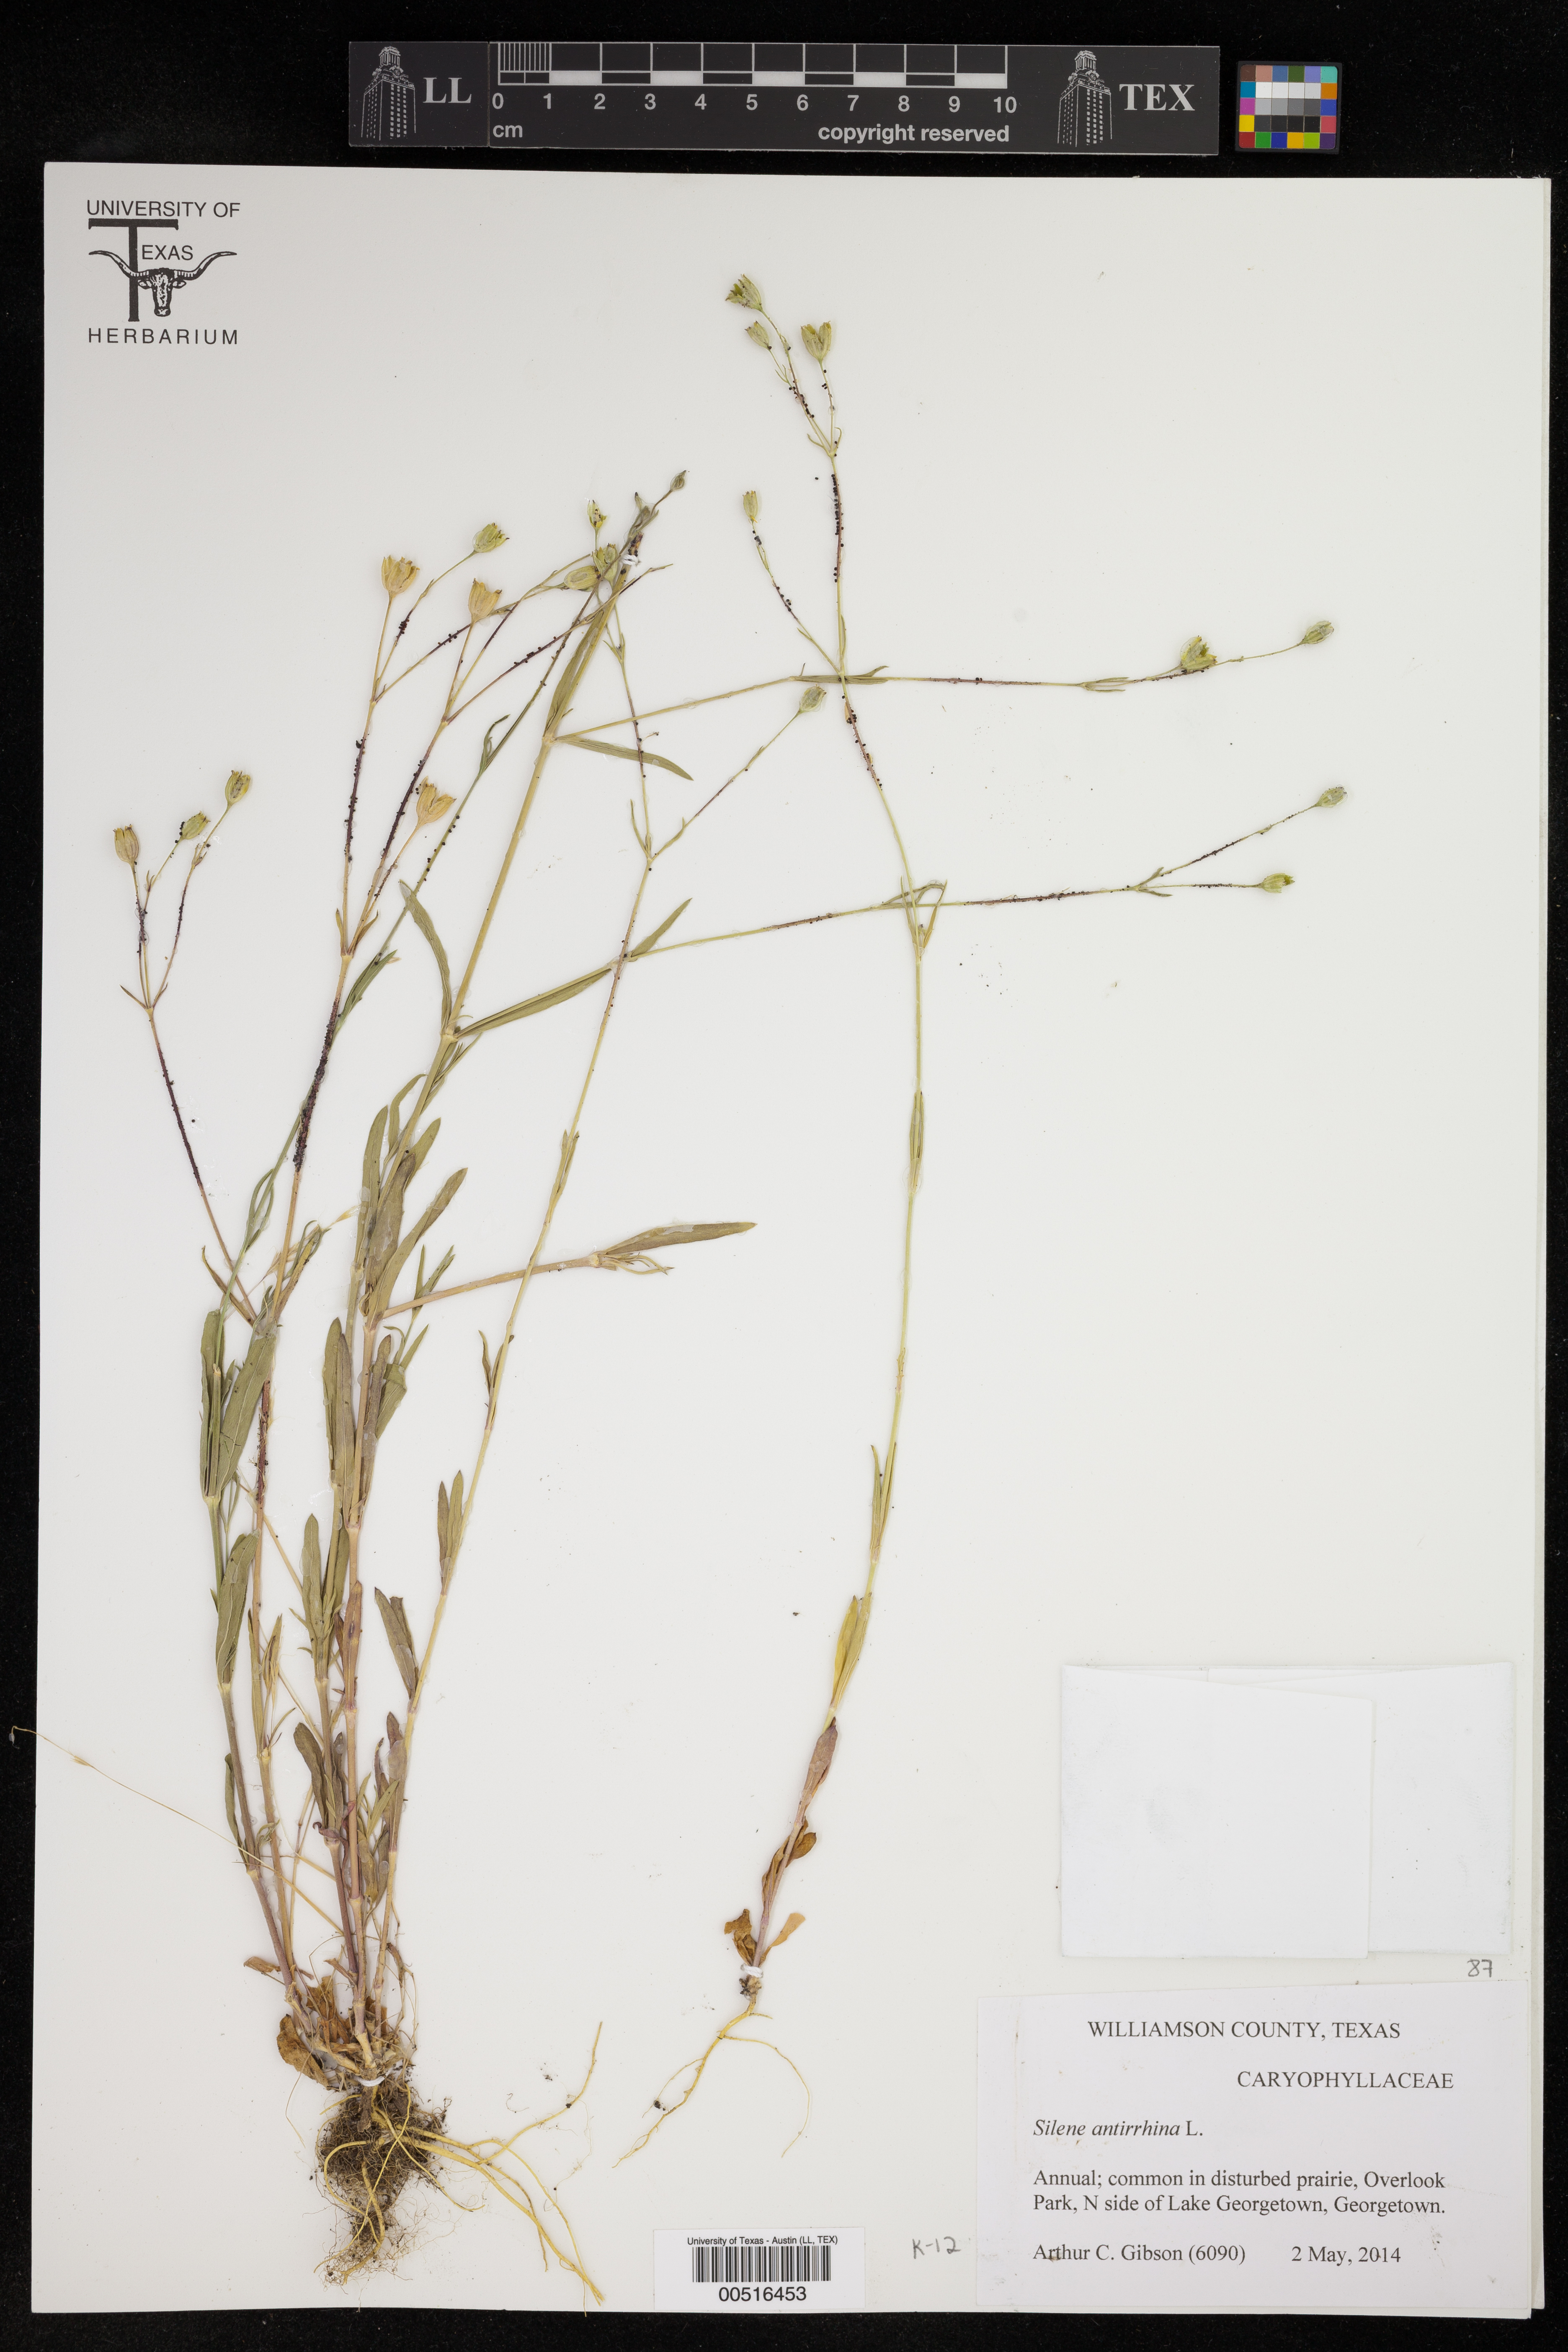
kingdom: Plantae
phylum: Tracheophyta
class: Magnoliopsida
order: Caryophyllales
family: Caryophyllaceae
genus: Silene
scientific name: Silene antirrhina
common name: Sleepy catchfly
